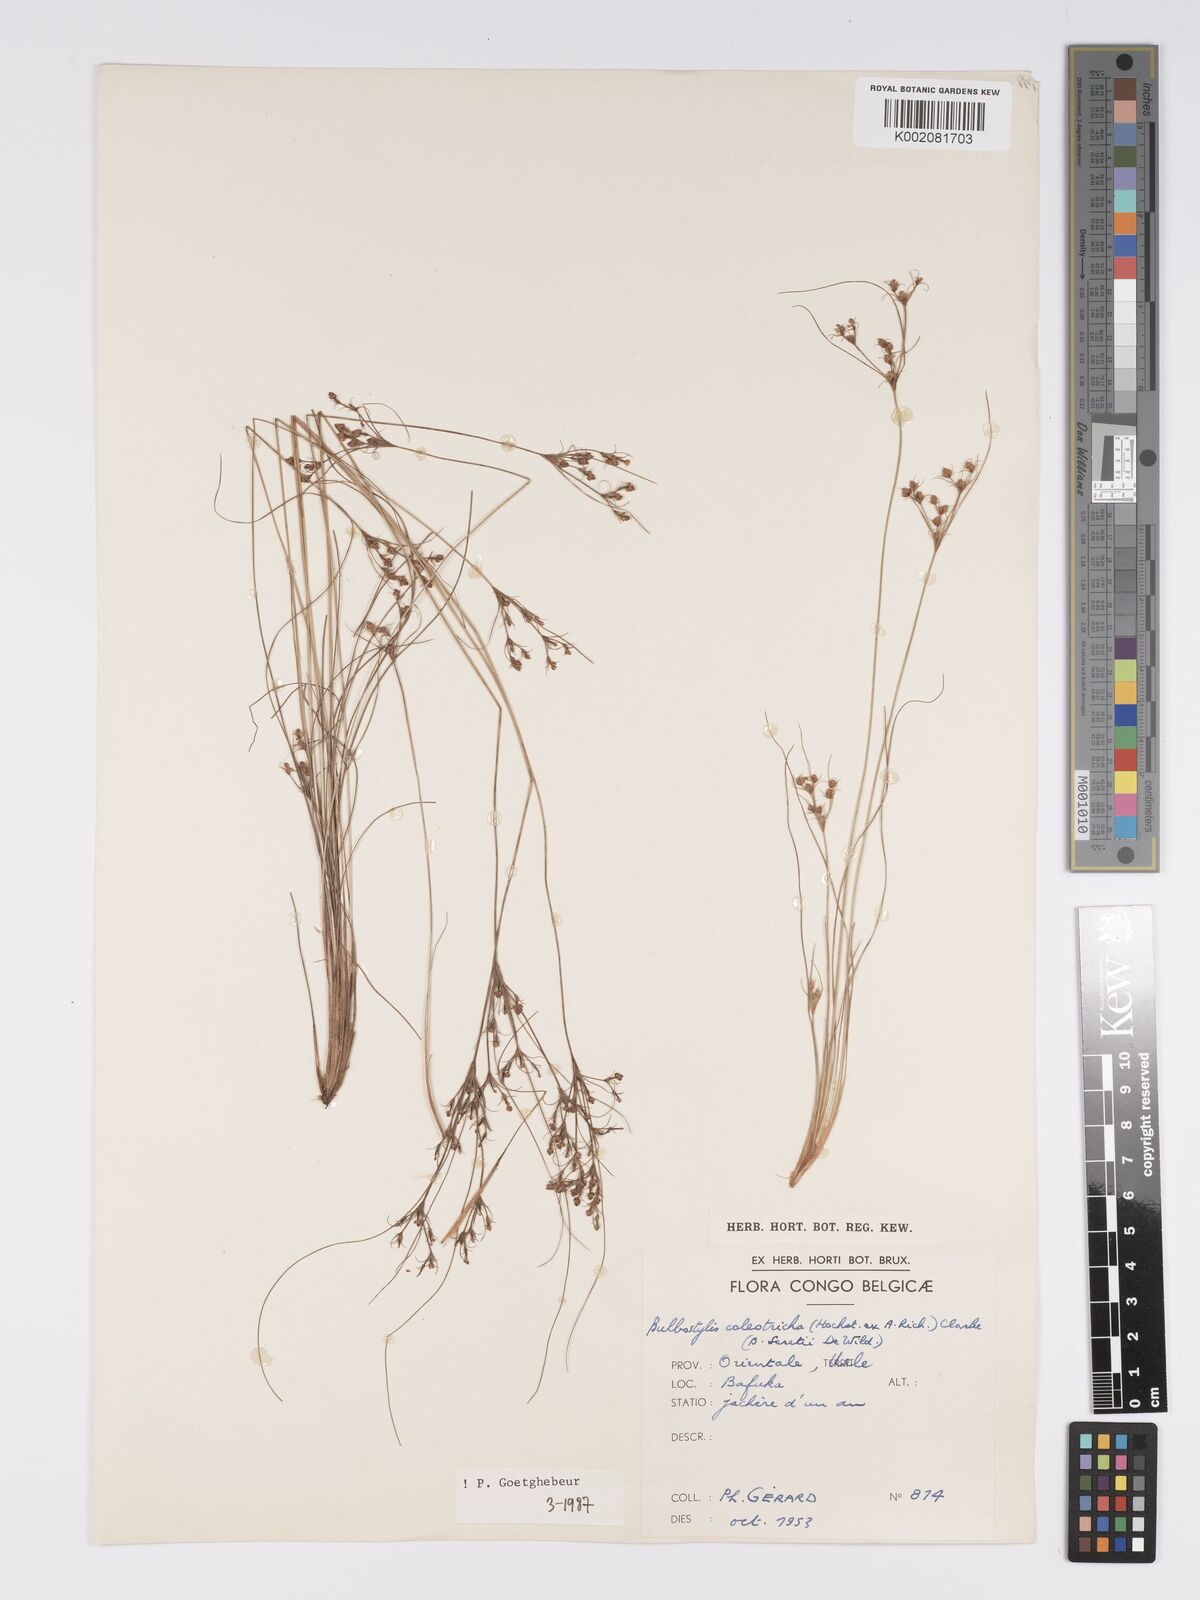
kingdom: Plantae
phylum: Tracheophyta
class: Liliopsida
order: Poales
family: Cyperaceae
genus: Bulbostylis
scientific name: Bulbostylis coleotricha
